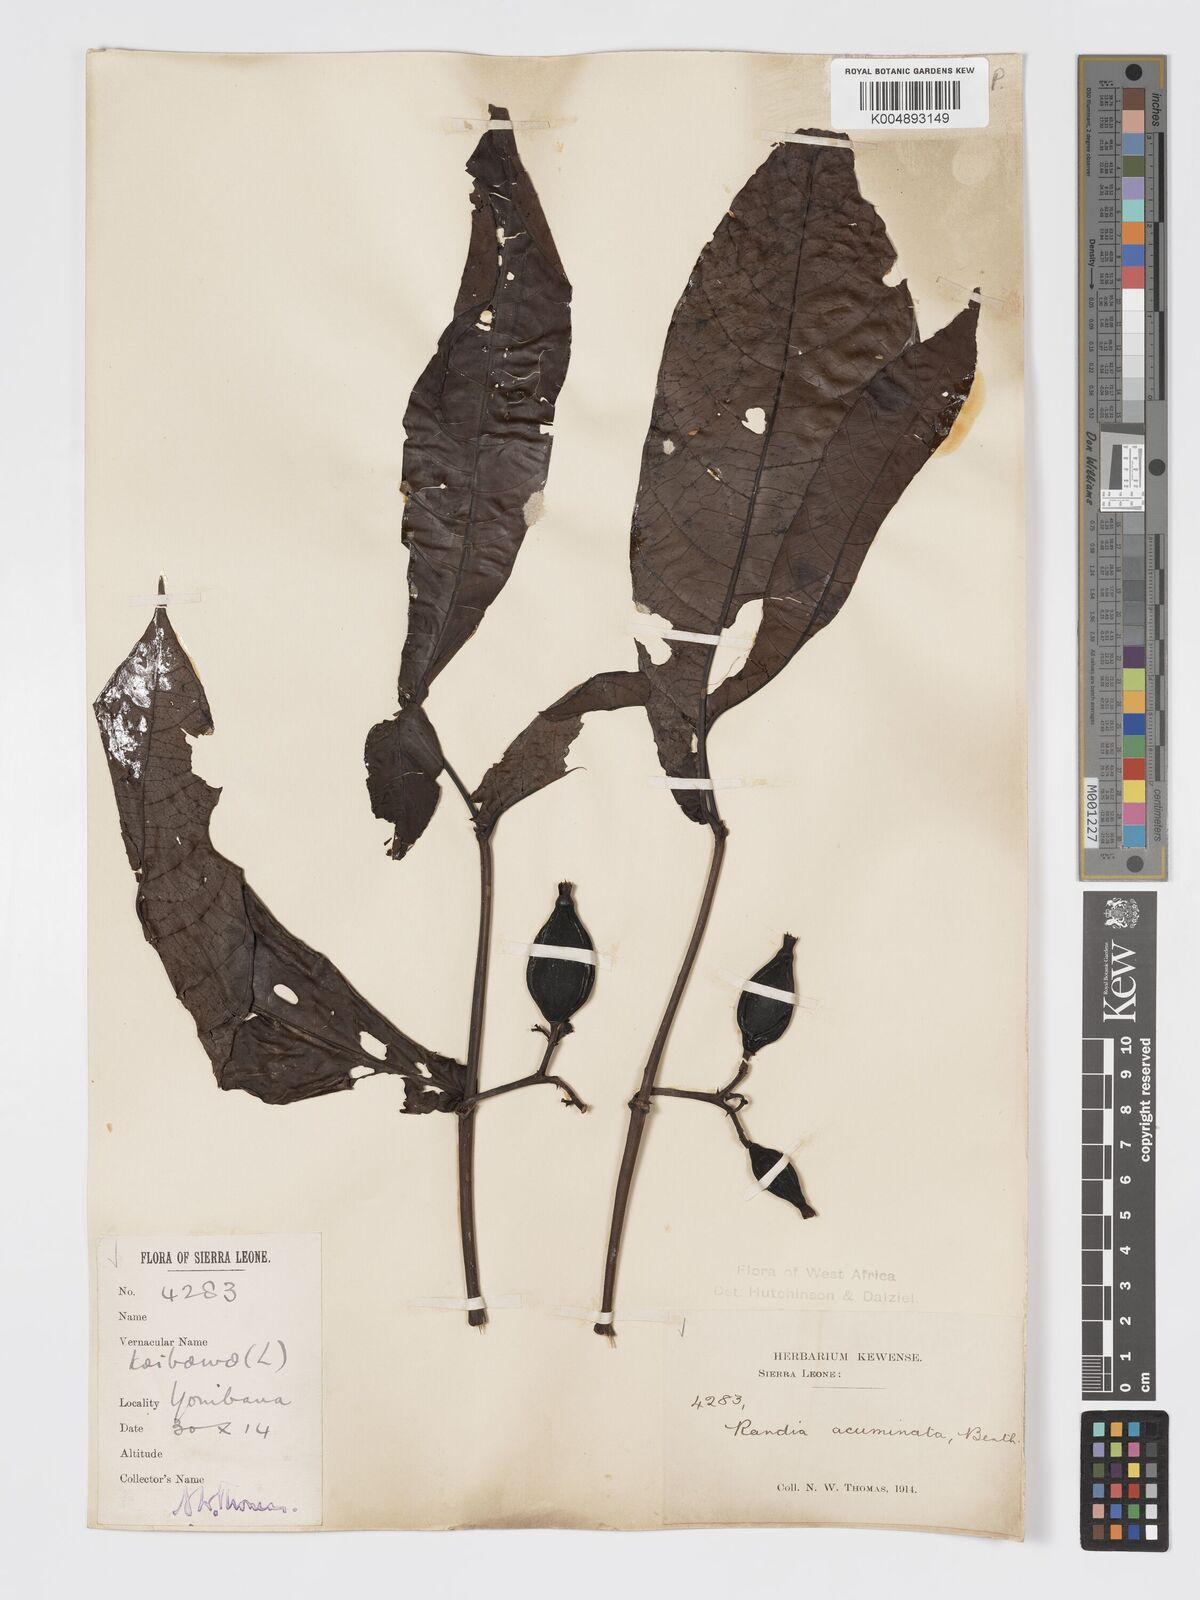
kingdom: Plantae
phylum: Tracheophyta
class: Magnoliopsida
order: Gentianales
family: Rubiaceae
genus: Massularia
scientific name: Massularia acuminata
